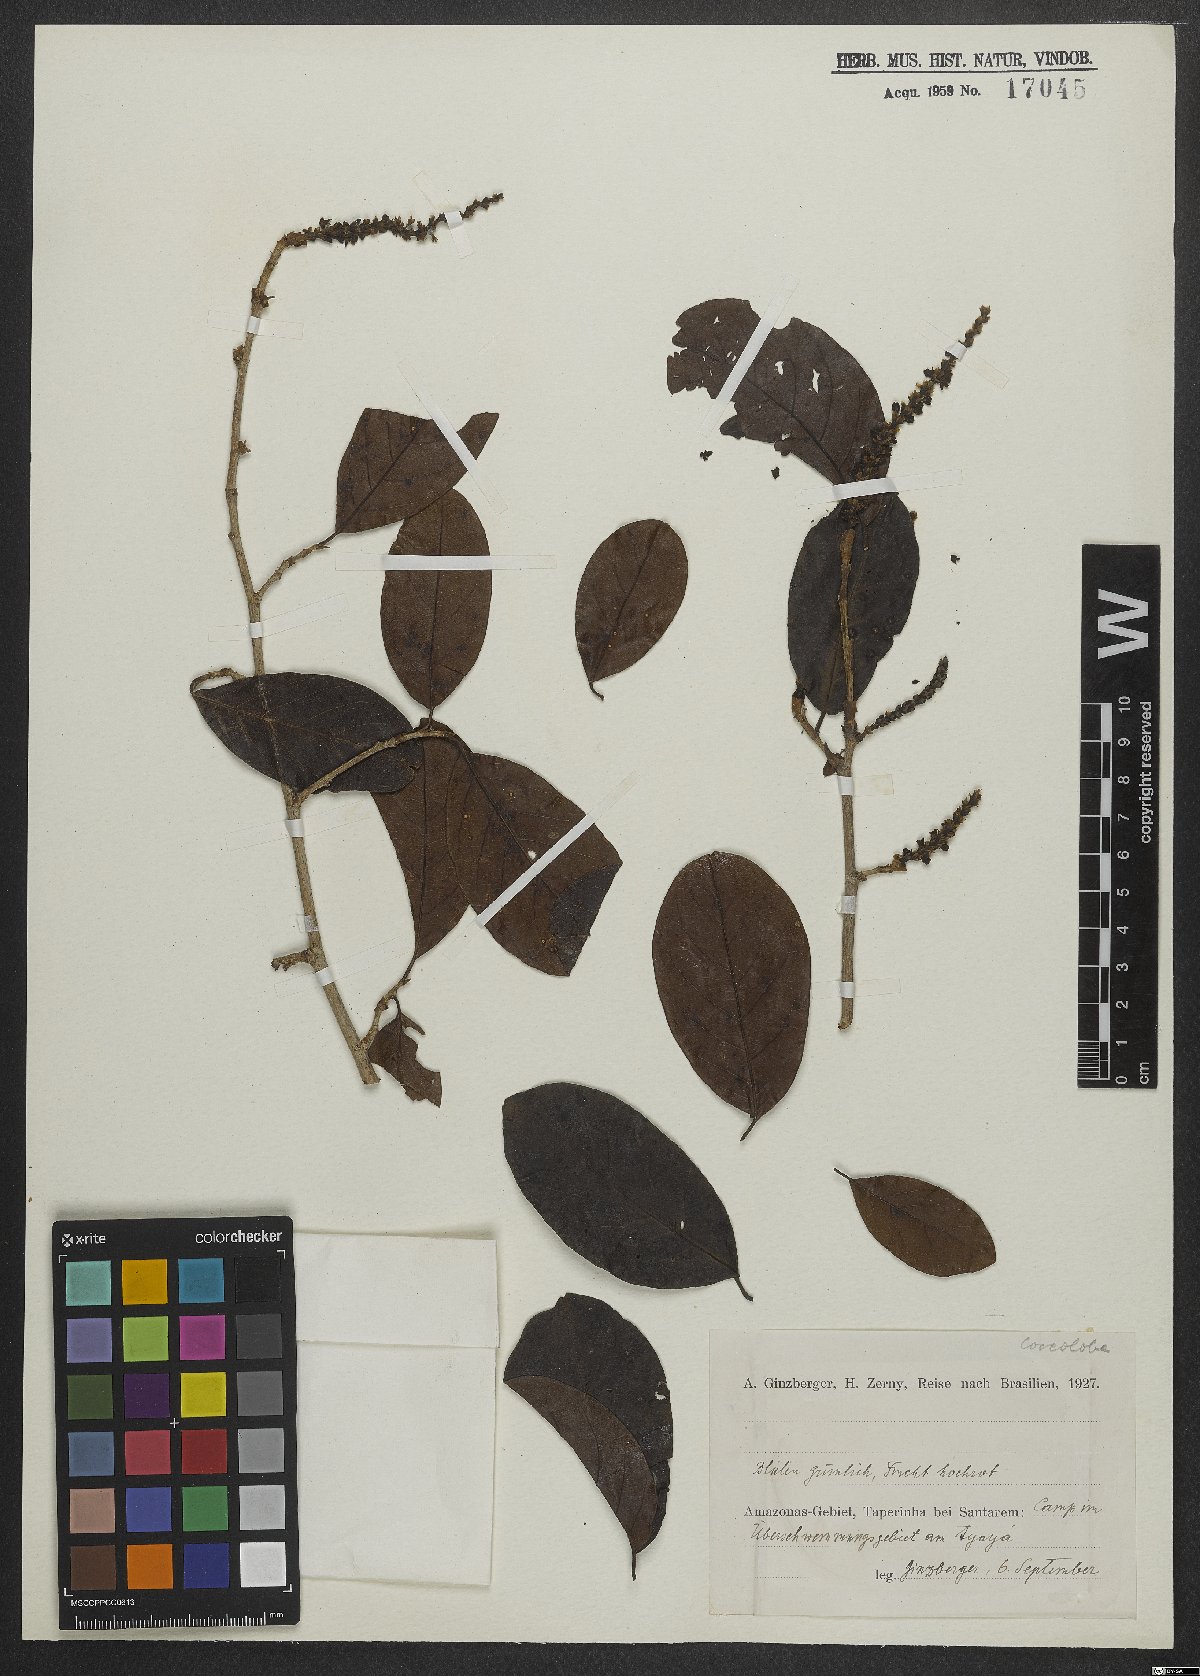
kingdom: Plantae
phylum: Tracheophyta
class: Magnoliopsida
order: Caryophyllales
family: Polygonaceae
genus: Coccoloba
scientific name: Coccoloba
